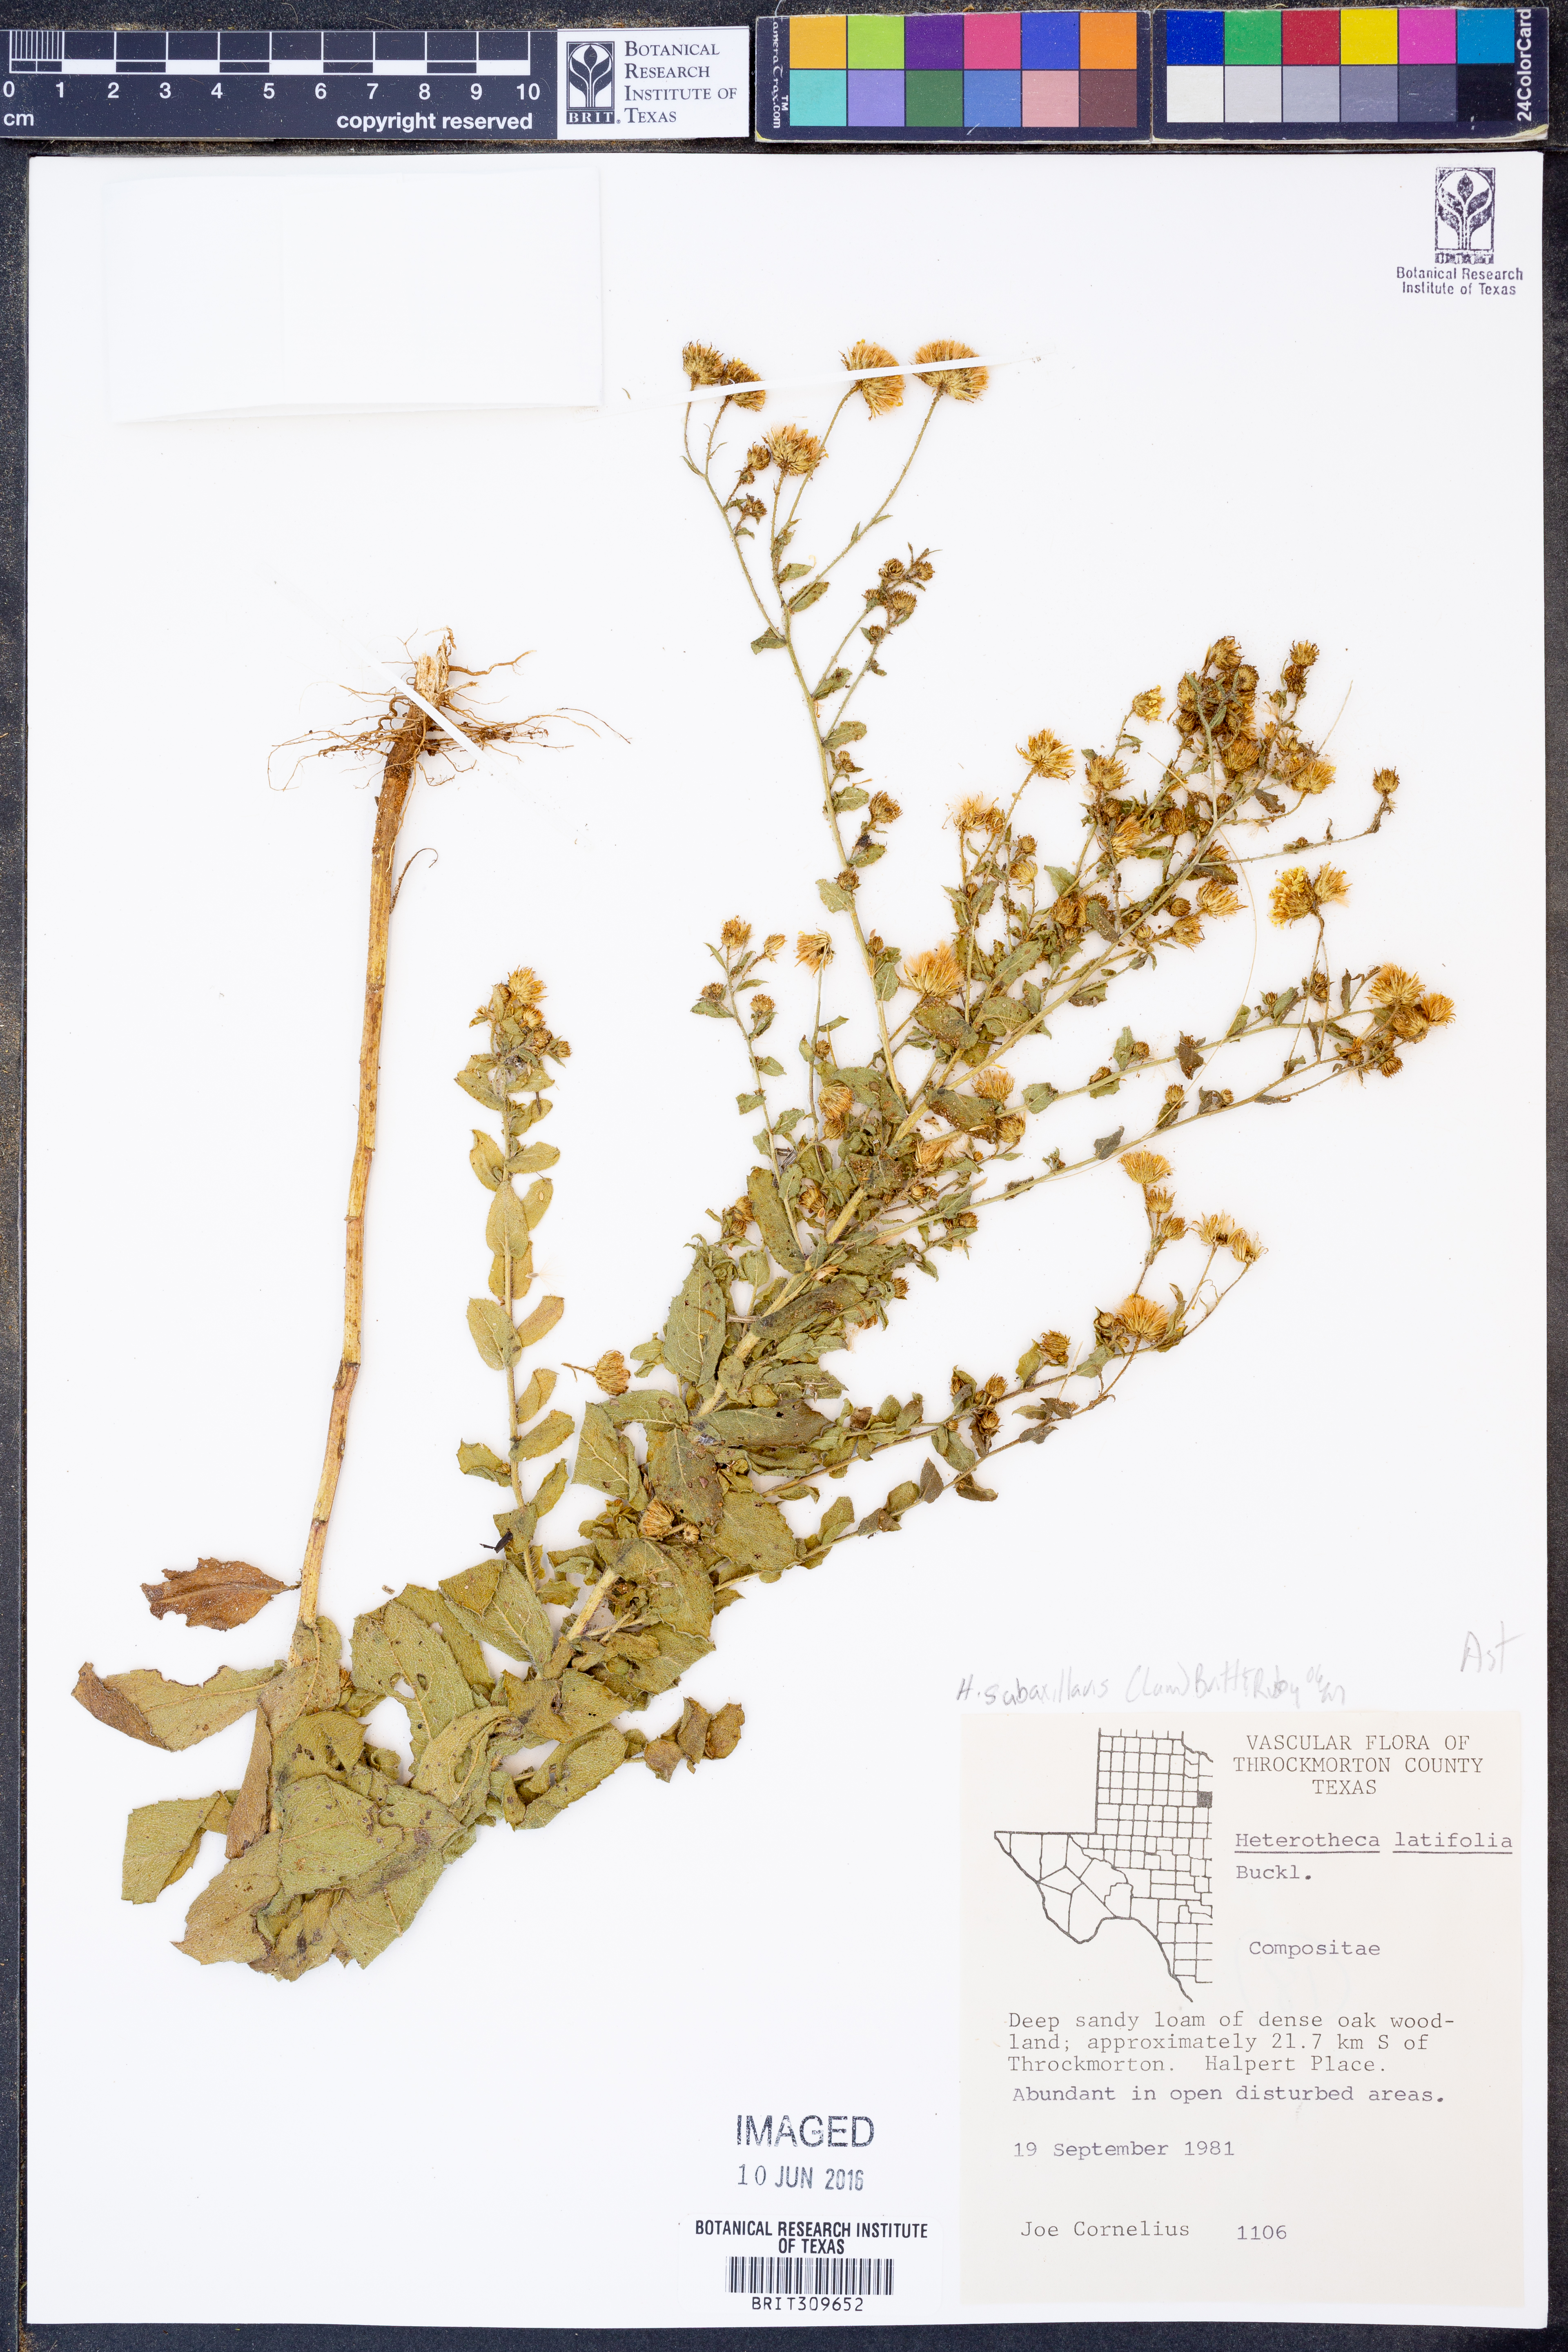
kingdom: Plantae
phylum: Tracheophyta
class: Magnoliopsida
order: Asterales
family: Asteraceae
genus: Heterotheca
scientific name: Heterotheca subaxillaris
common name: Camphorweed
